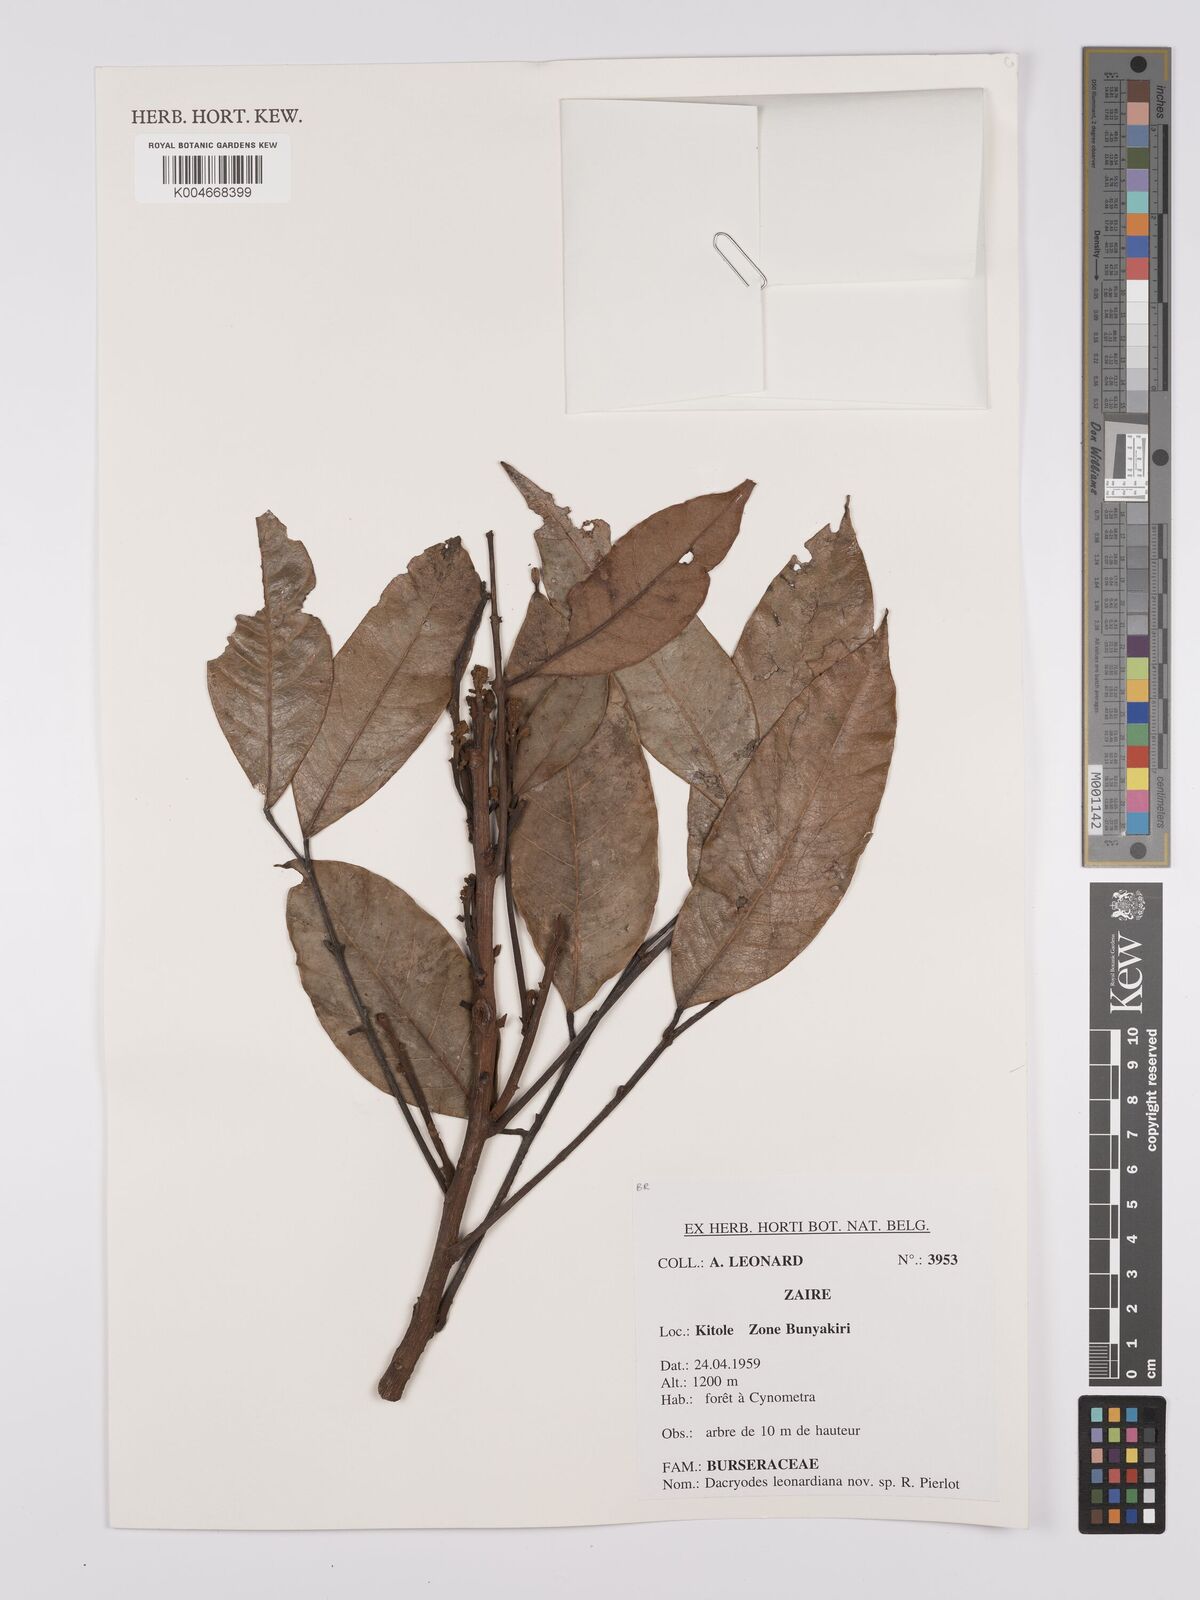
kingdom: Plantae
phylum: Tracheophyta
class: Magnoliopsida
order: Sapindales
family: Burseraceae
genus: Pachylobus
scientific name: Pachylobus leonardianus
